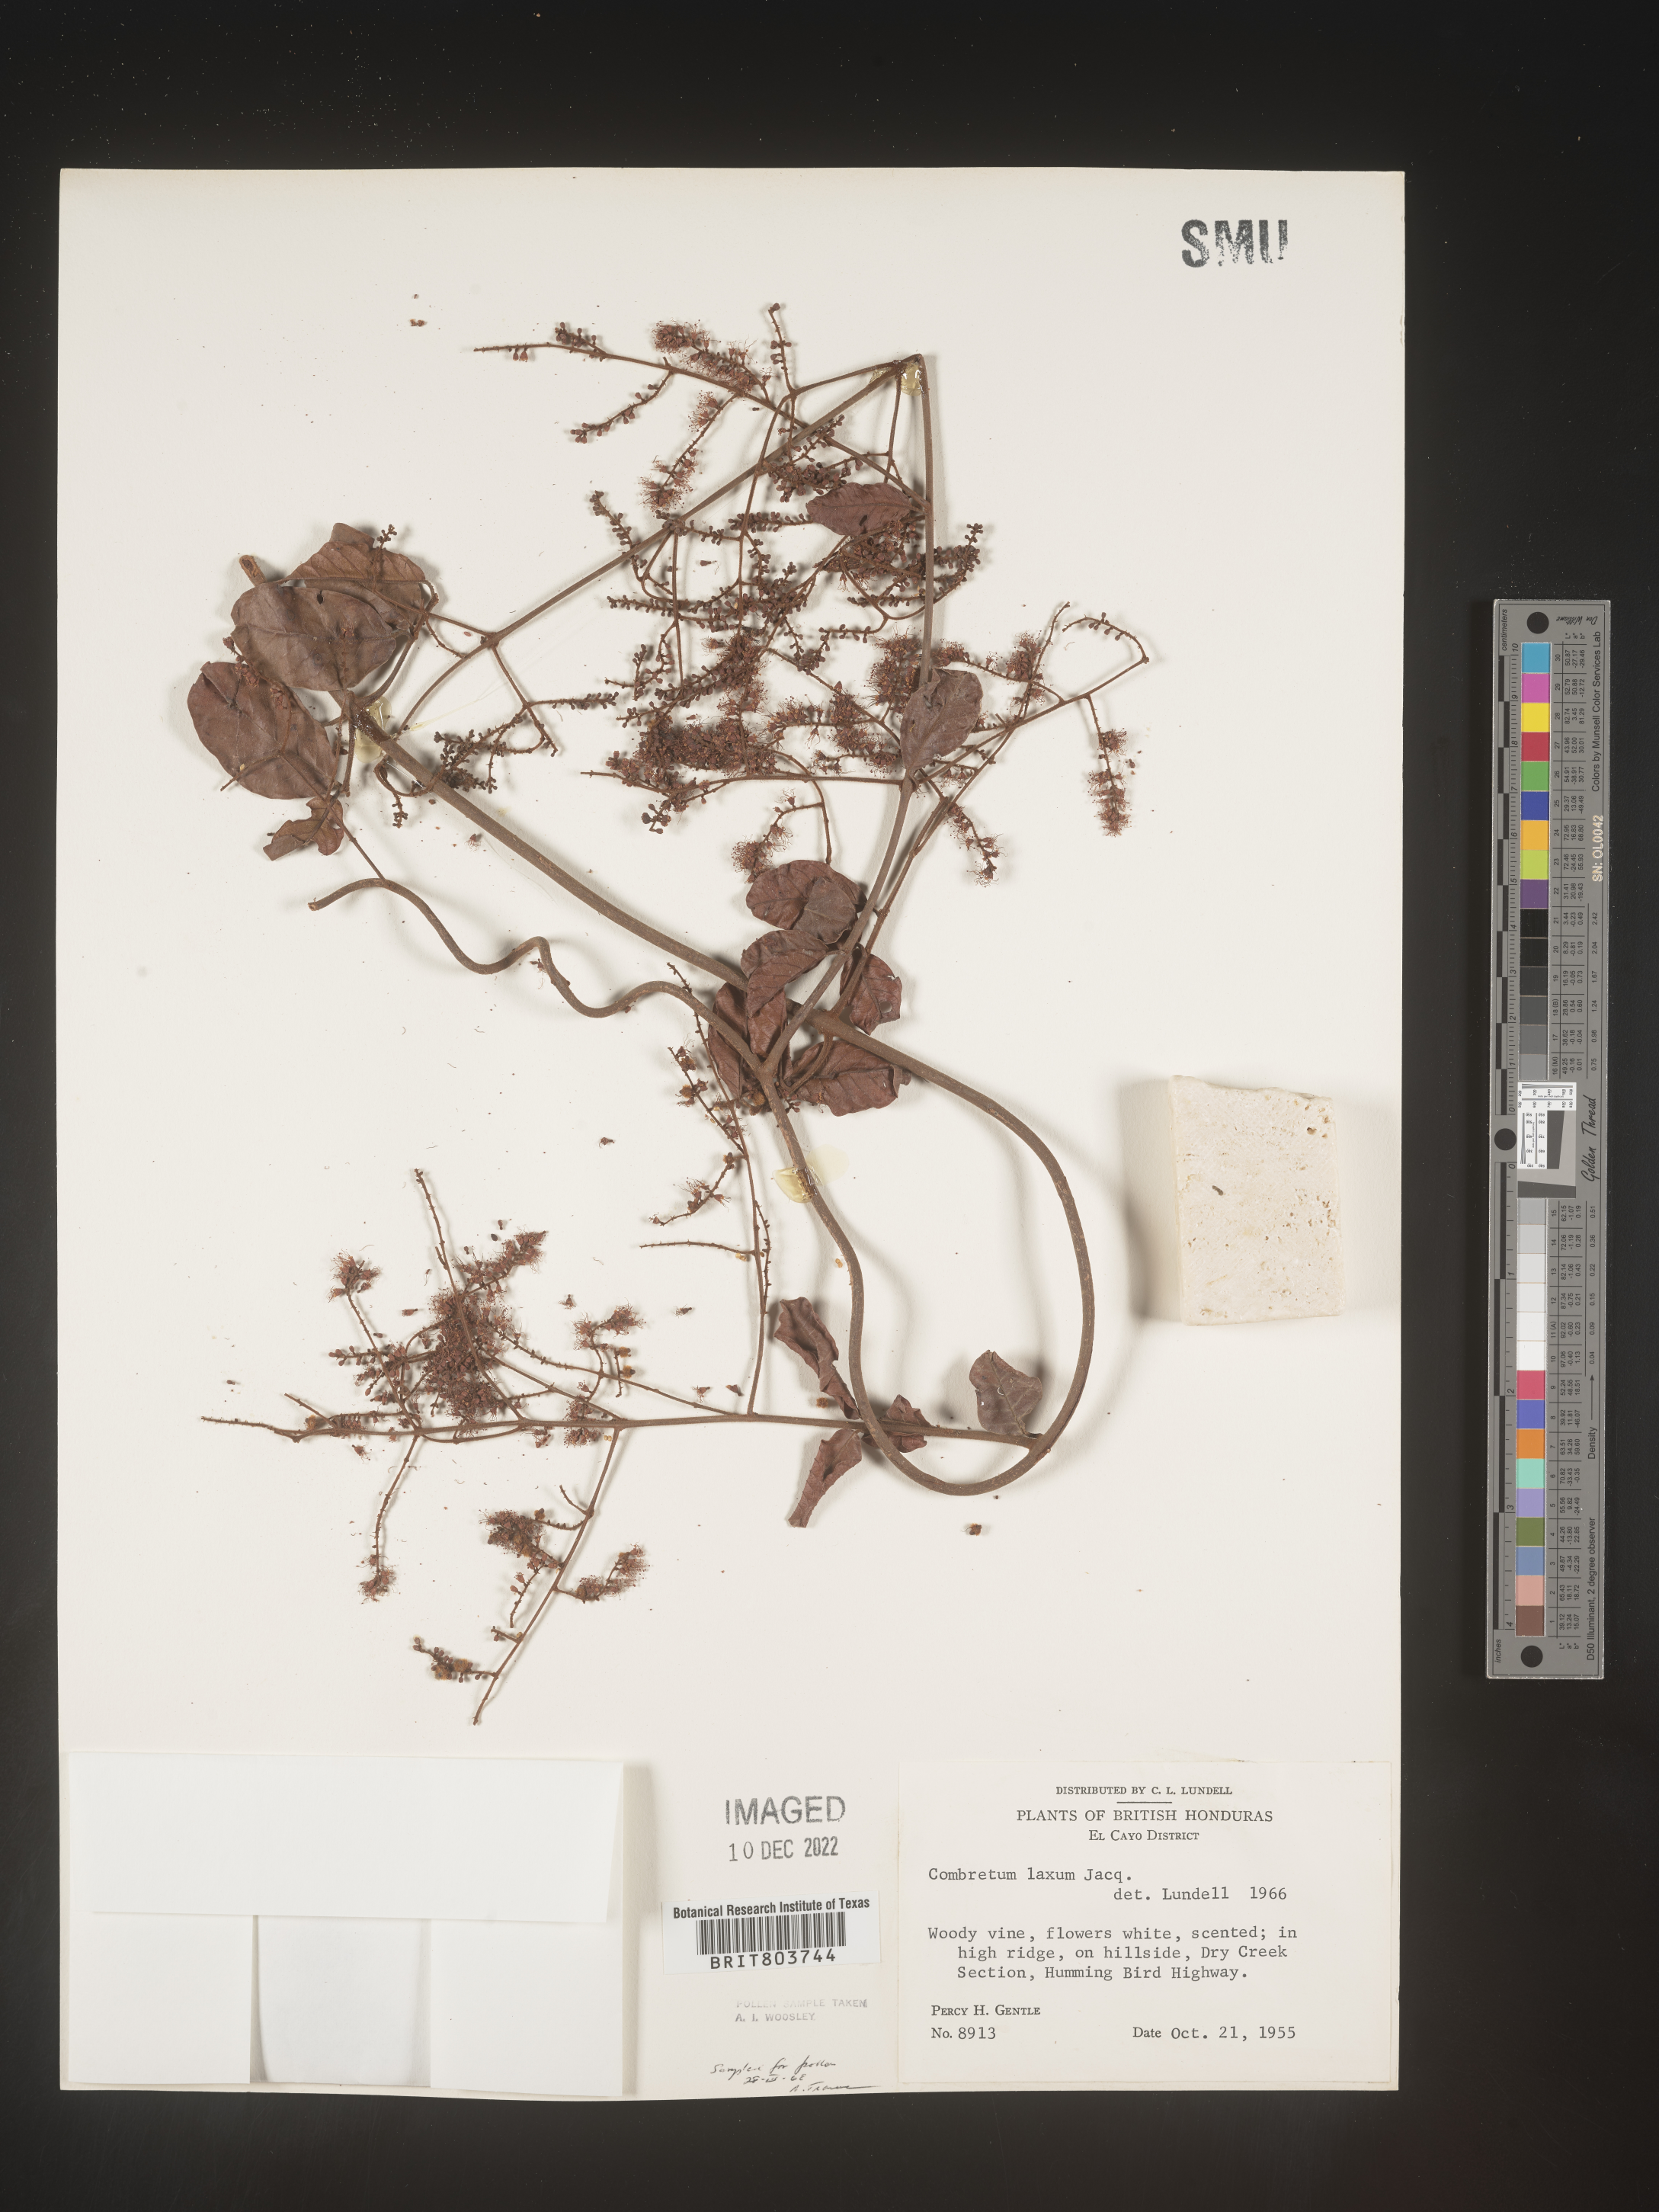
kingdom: Plantae
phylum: Tracheophyta
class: Magnoliopsida
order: Myrtales
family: Combretaceae
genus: Combretum
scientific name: Combretum
